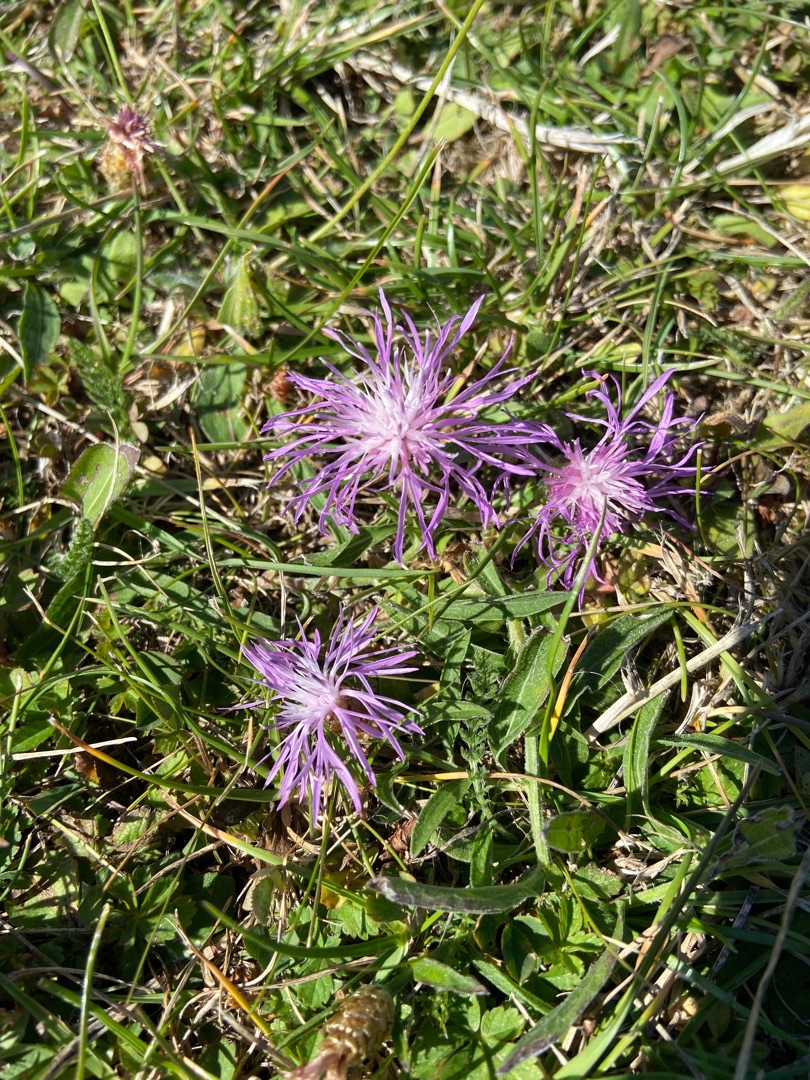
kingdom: Plantae
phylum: Tracheophyta
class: Magnoliopsida
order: Asterales
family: Asteraceae
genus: Centaurea
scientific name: Centaurea jacea
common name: Almindelig knopurt
